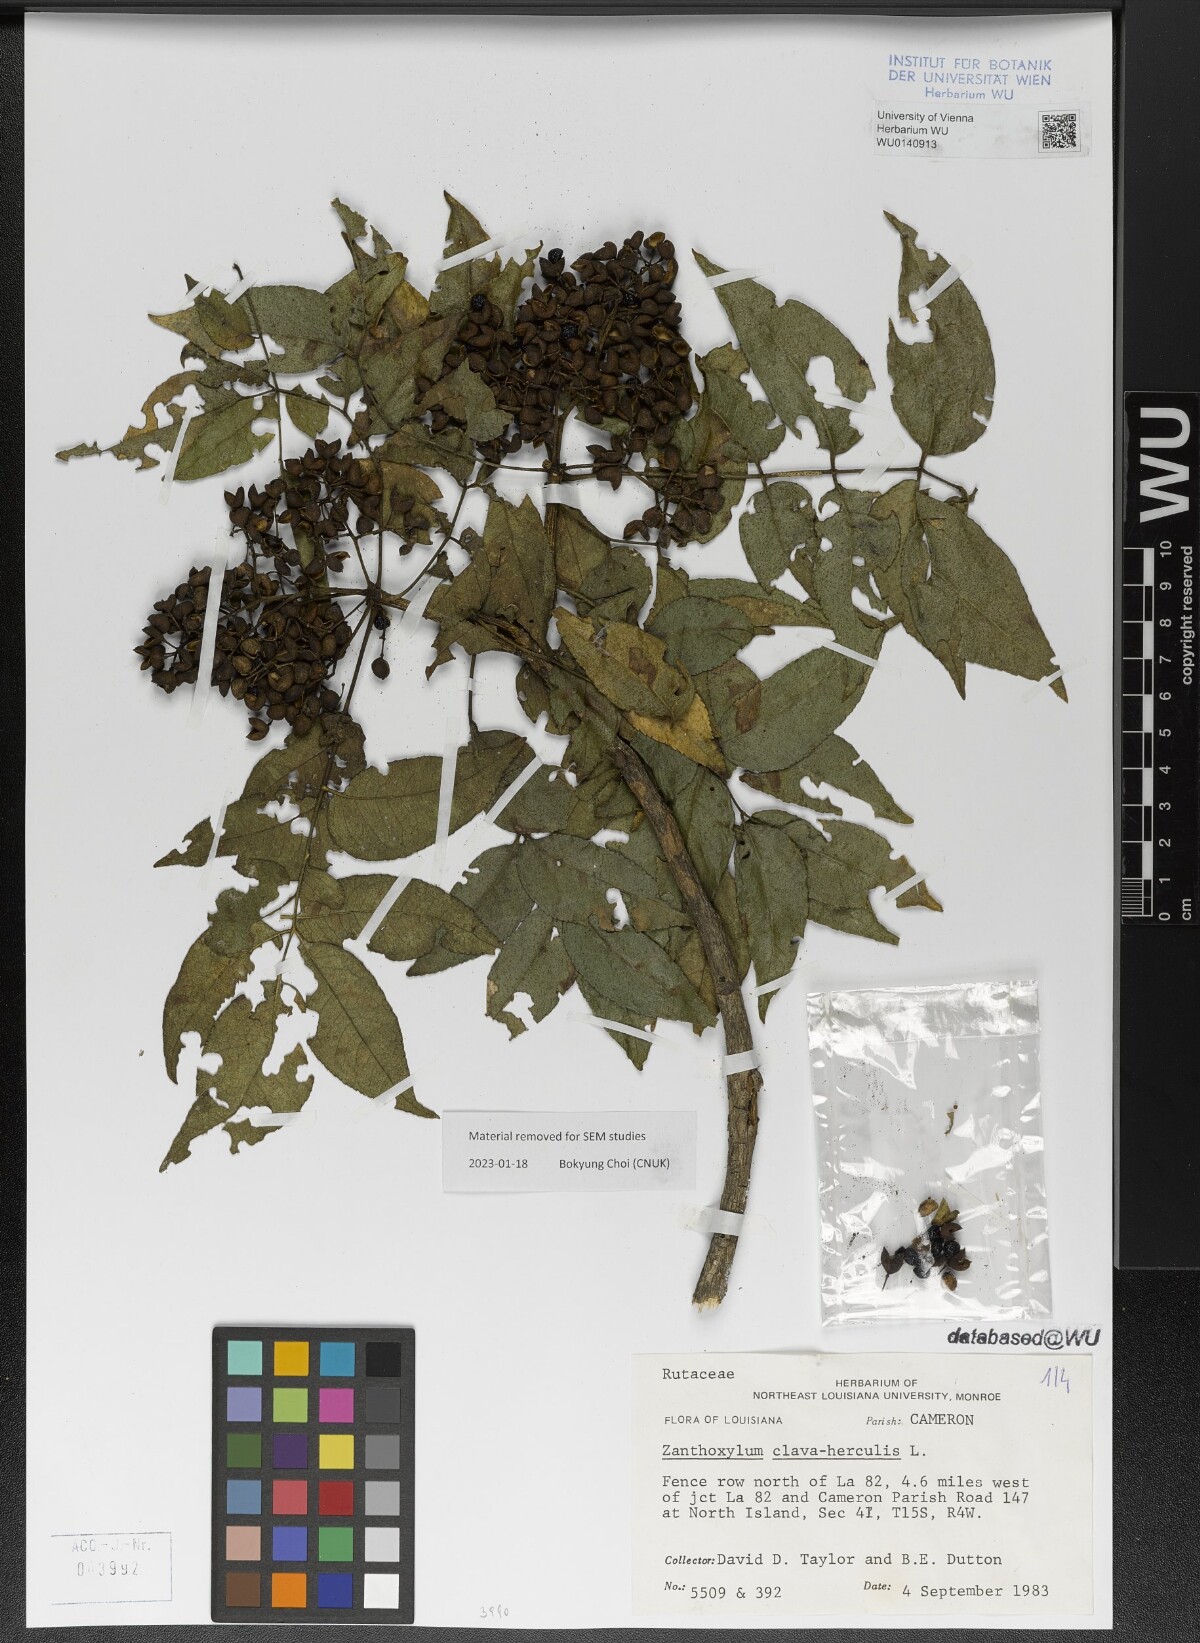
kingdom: Plantae
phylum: Tracheophyta
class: Magnoliopsida
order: Sapindales
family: Rutaceae
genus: Zanthoxylum
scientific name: Zanthoxylum clava-herculis
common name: Hercules'-club
